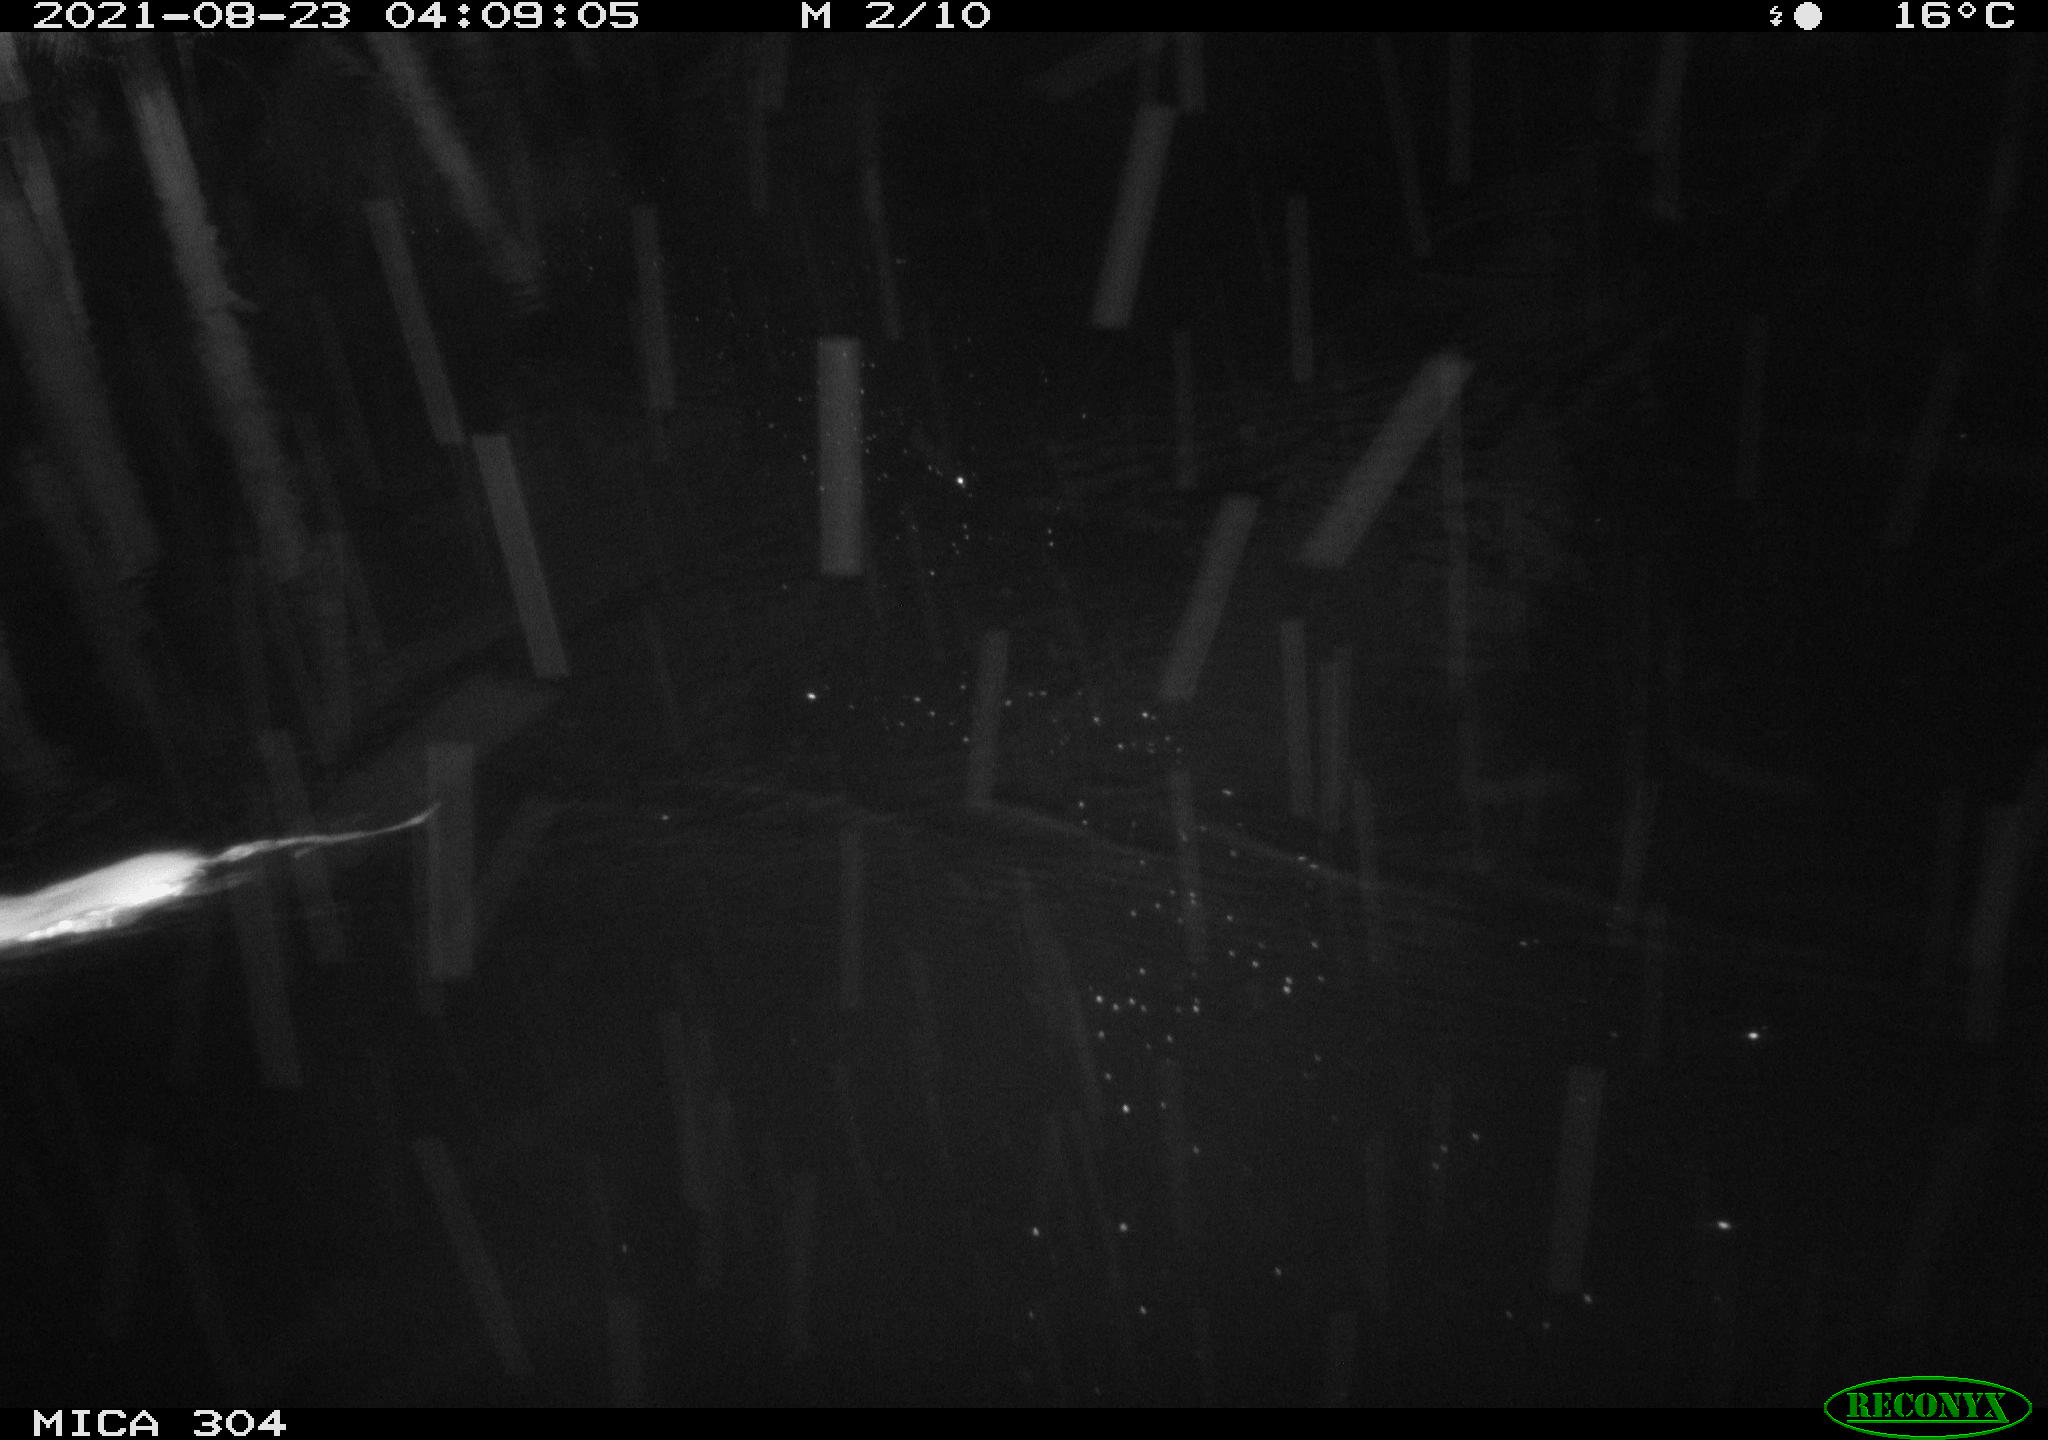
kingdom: Animalia
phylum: Chordata
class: Mammalia
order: Rodentia
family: Muridae
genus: Rattus
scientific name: Rattus norvegicus
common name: Brown rat
